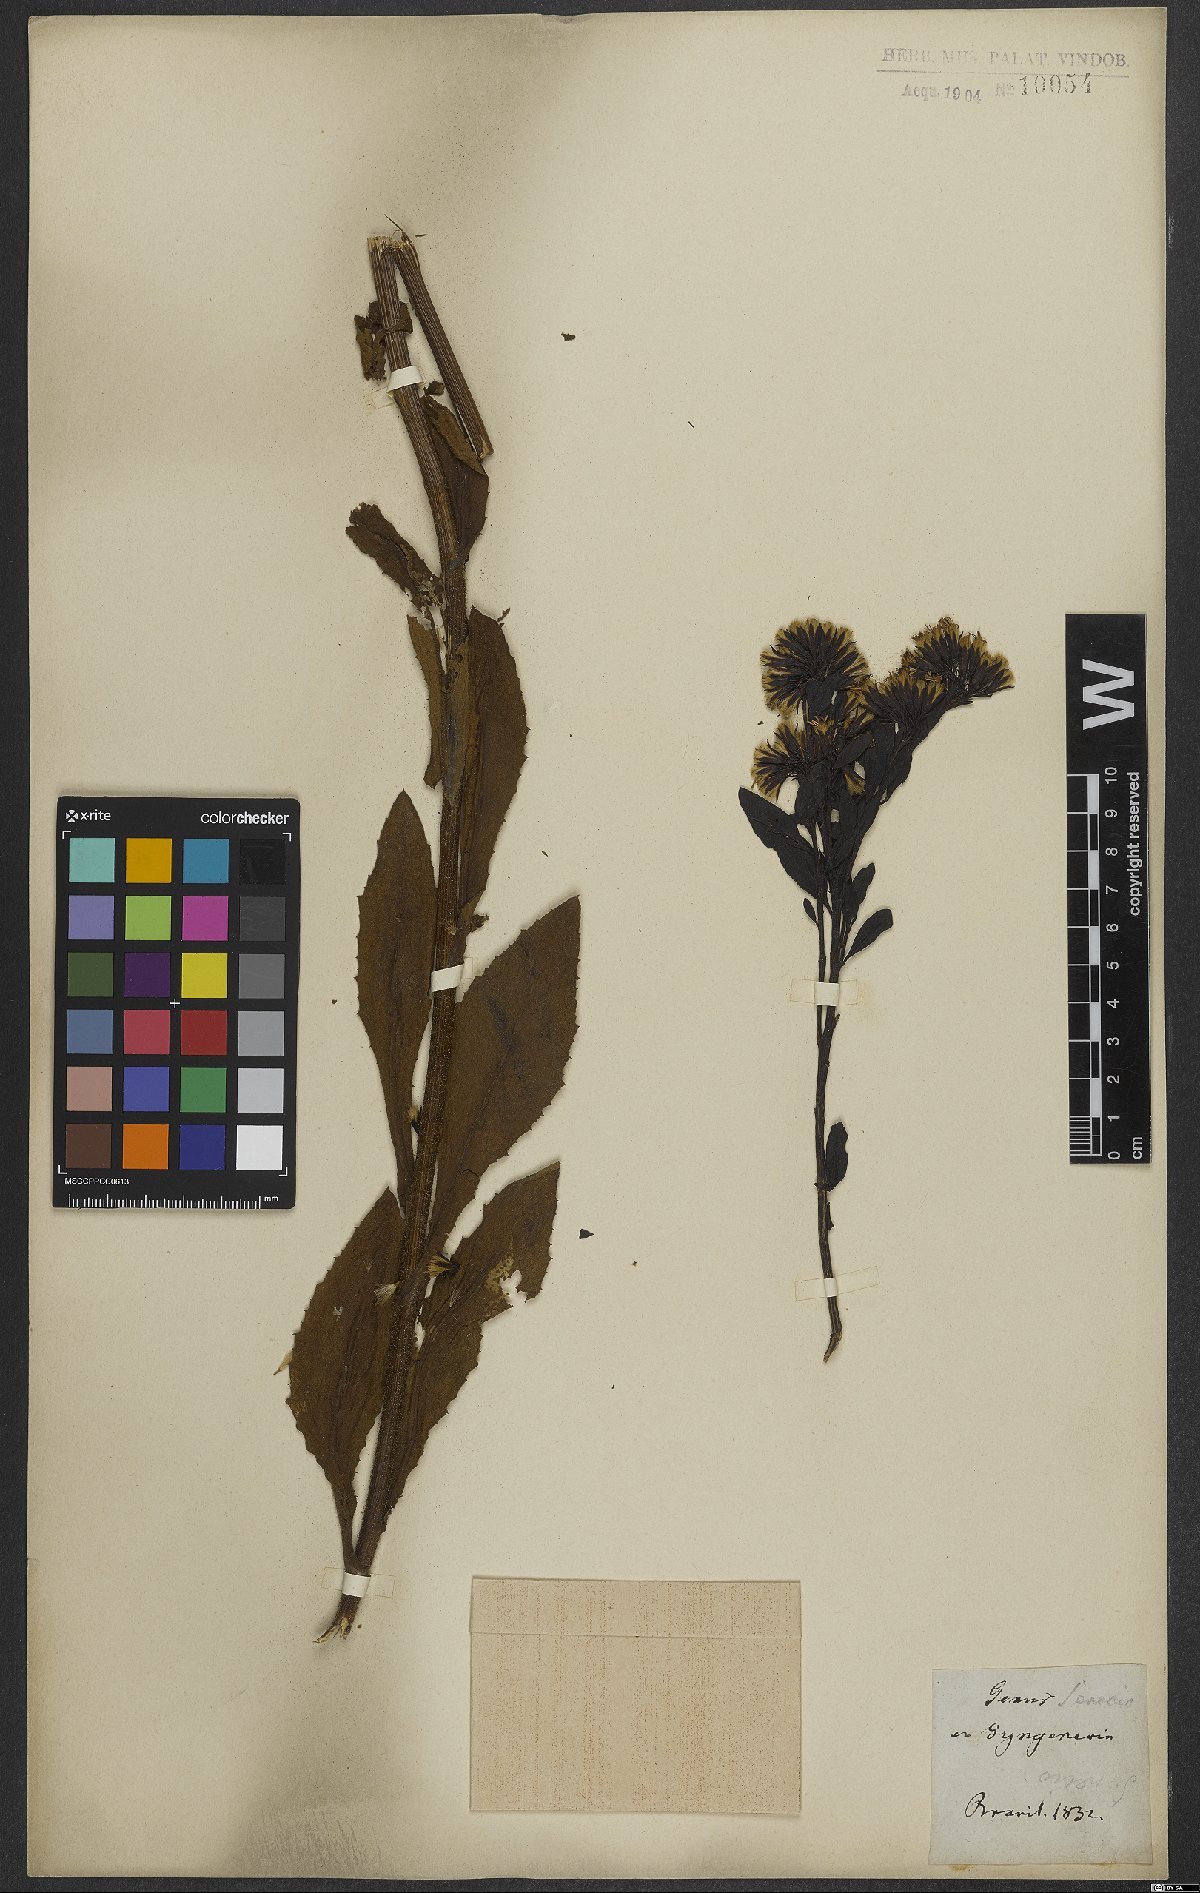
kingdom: Plantae
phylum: Tracheophyta
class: Magnoliopsida
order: Asterales
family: Asteraceae
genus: Senecio
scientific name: Senecio
